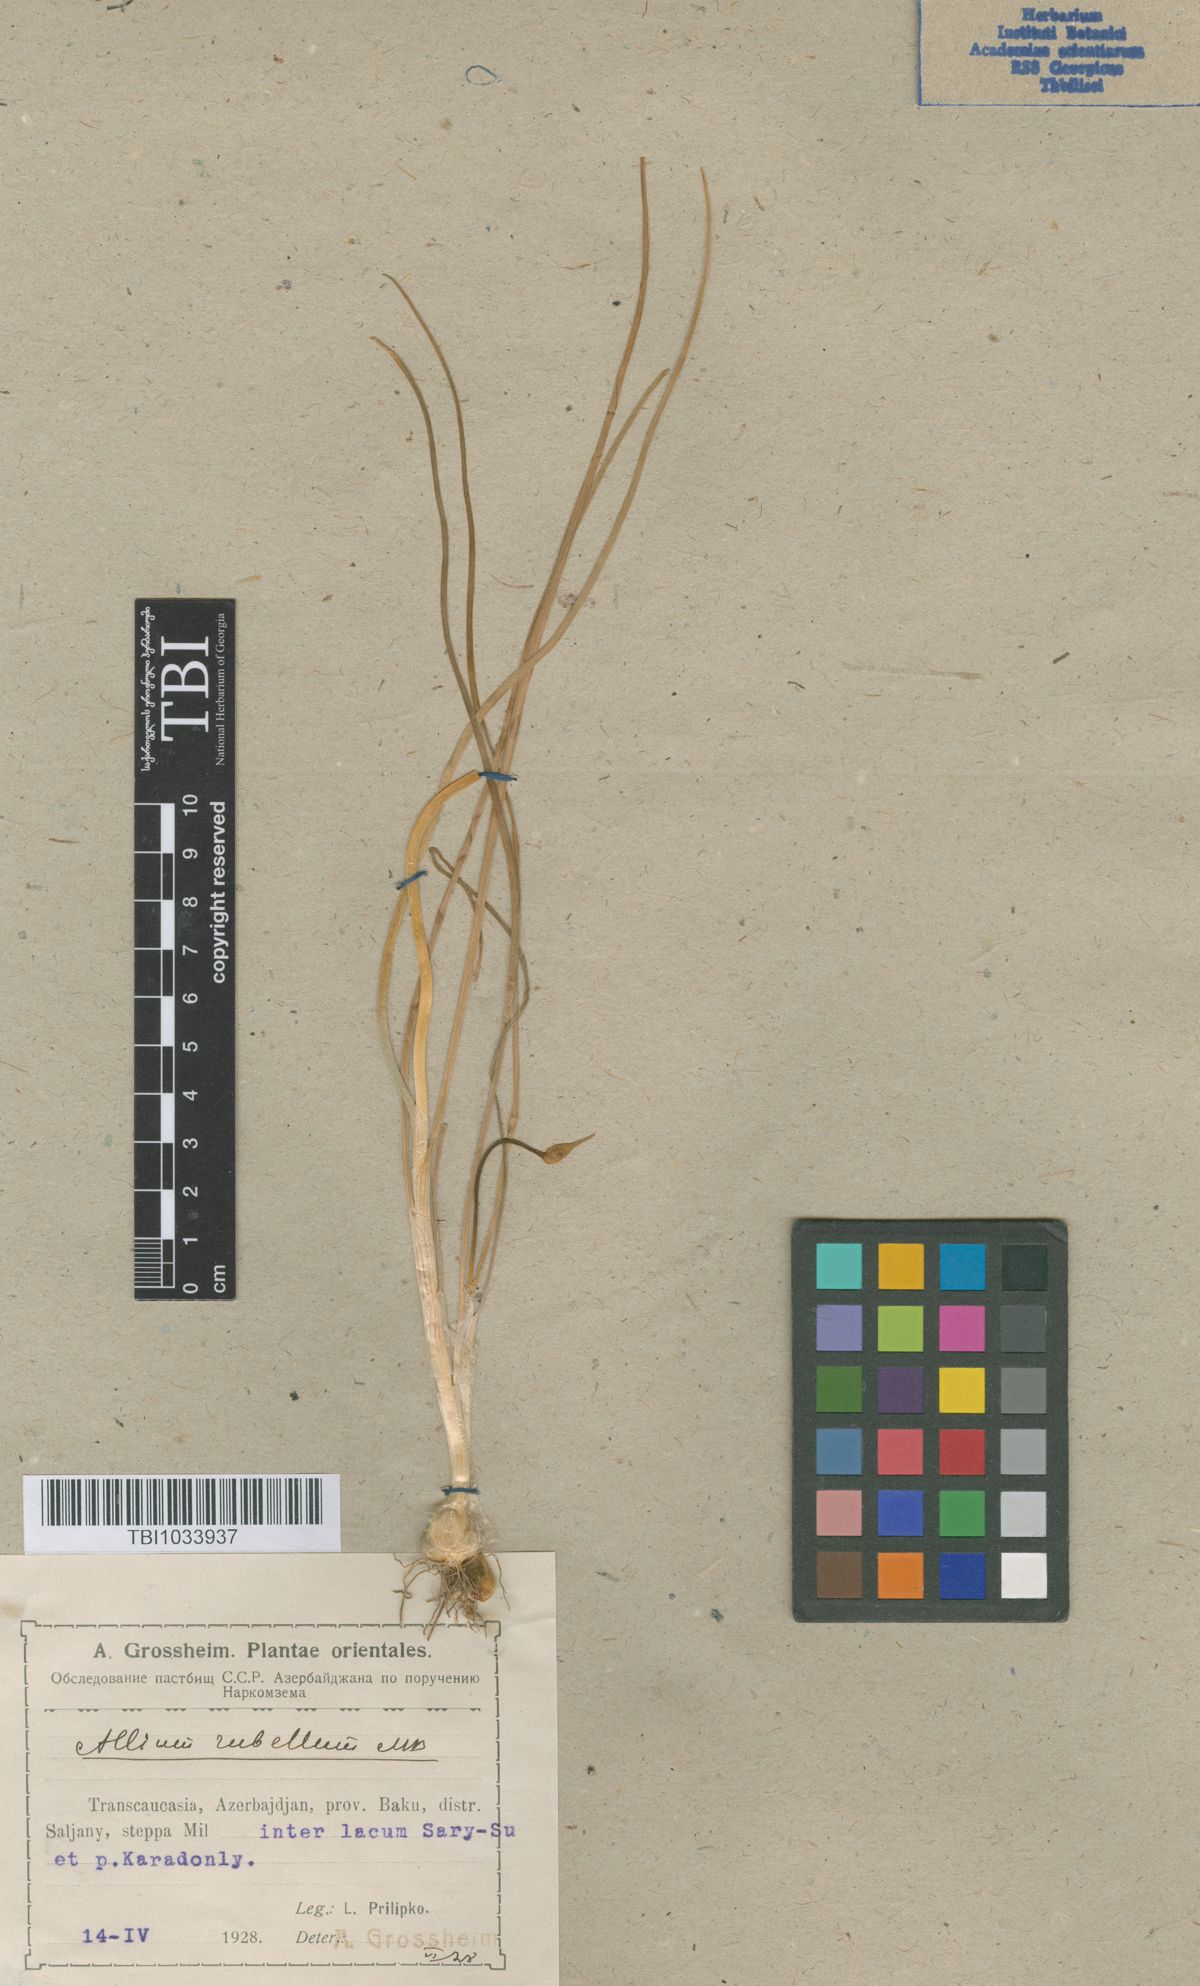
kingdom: Plantae
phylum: Tracheophyta
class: Liliopsida
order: Asparagales
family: Amaryllidaceae
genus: Allium
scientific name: Allium rubellum
